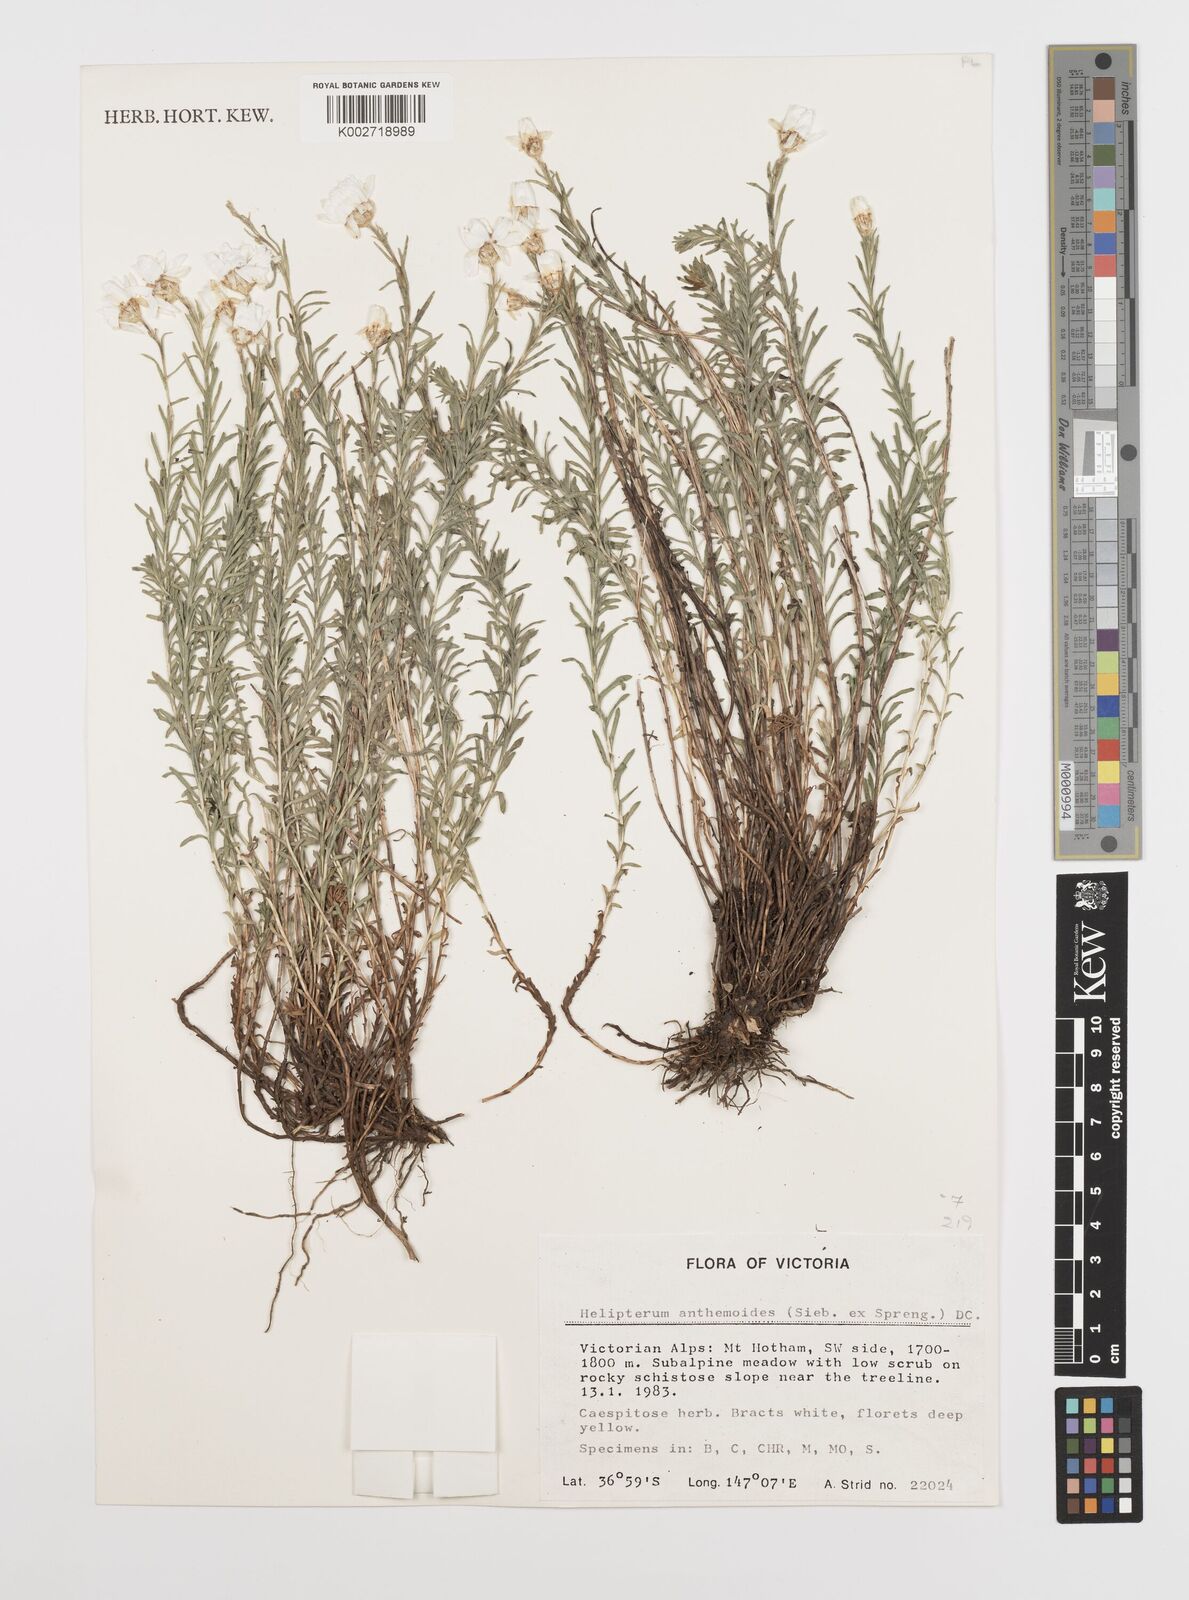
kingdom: Plantae
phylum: Tracheophyta
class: Magnoliopsida
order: Asterales
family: Asteraceae
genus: Rhodanthe
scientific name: Rhodanthe anthemoides
